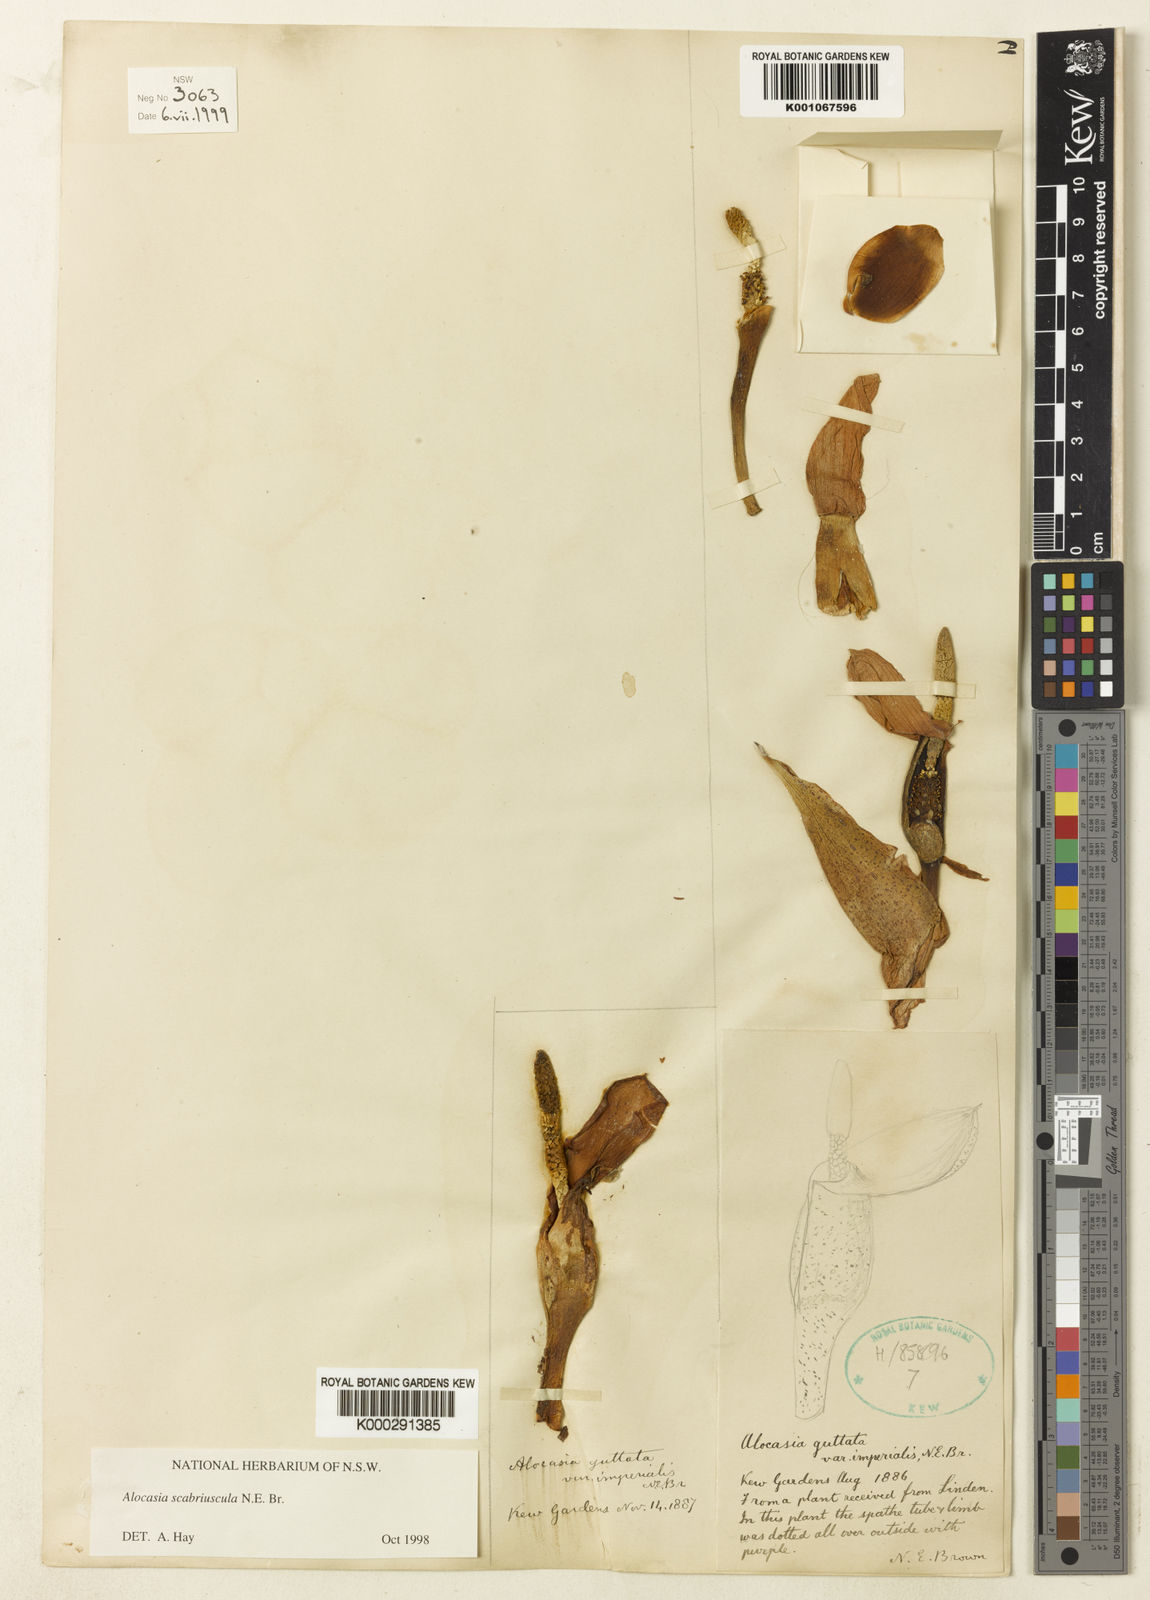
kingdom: Plantae
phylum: Tracheophyta
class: Liliopsida
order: Alismatales
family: Araceae
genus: Alocasia
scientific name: Alocasia scabriuscula
